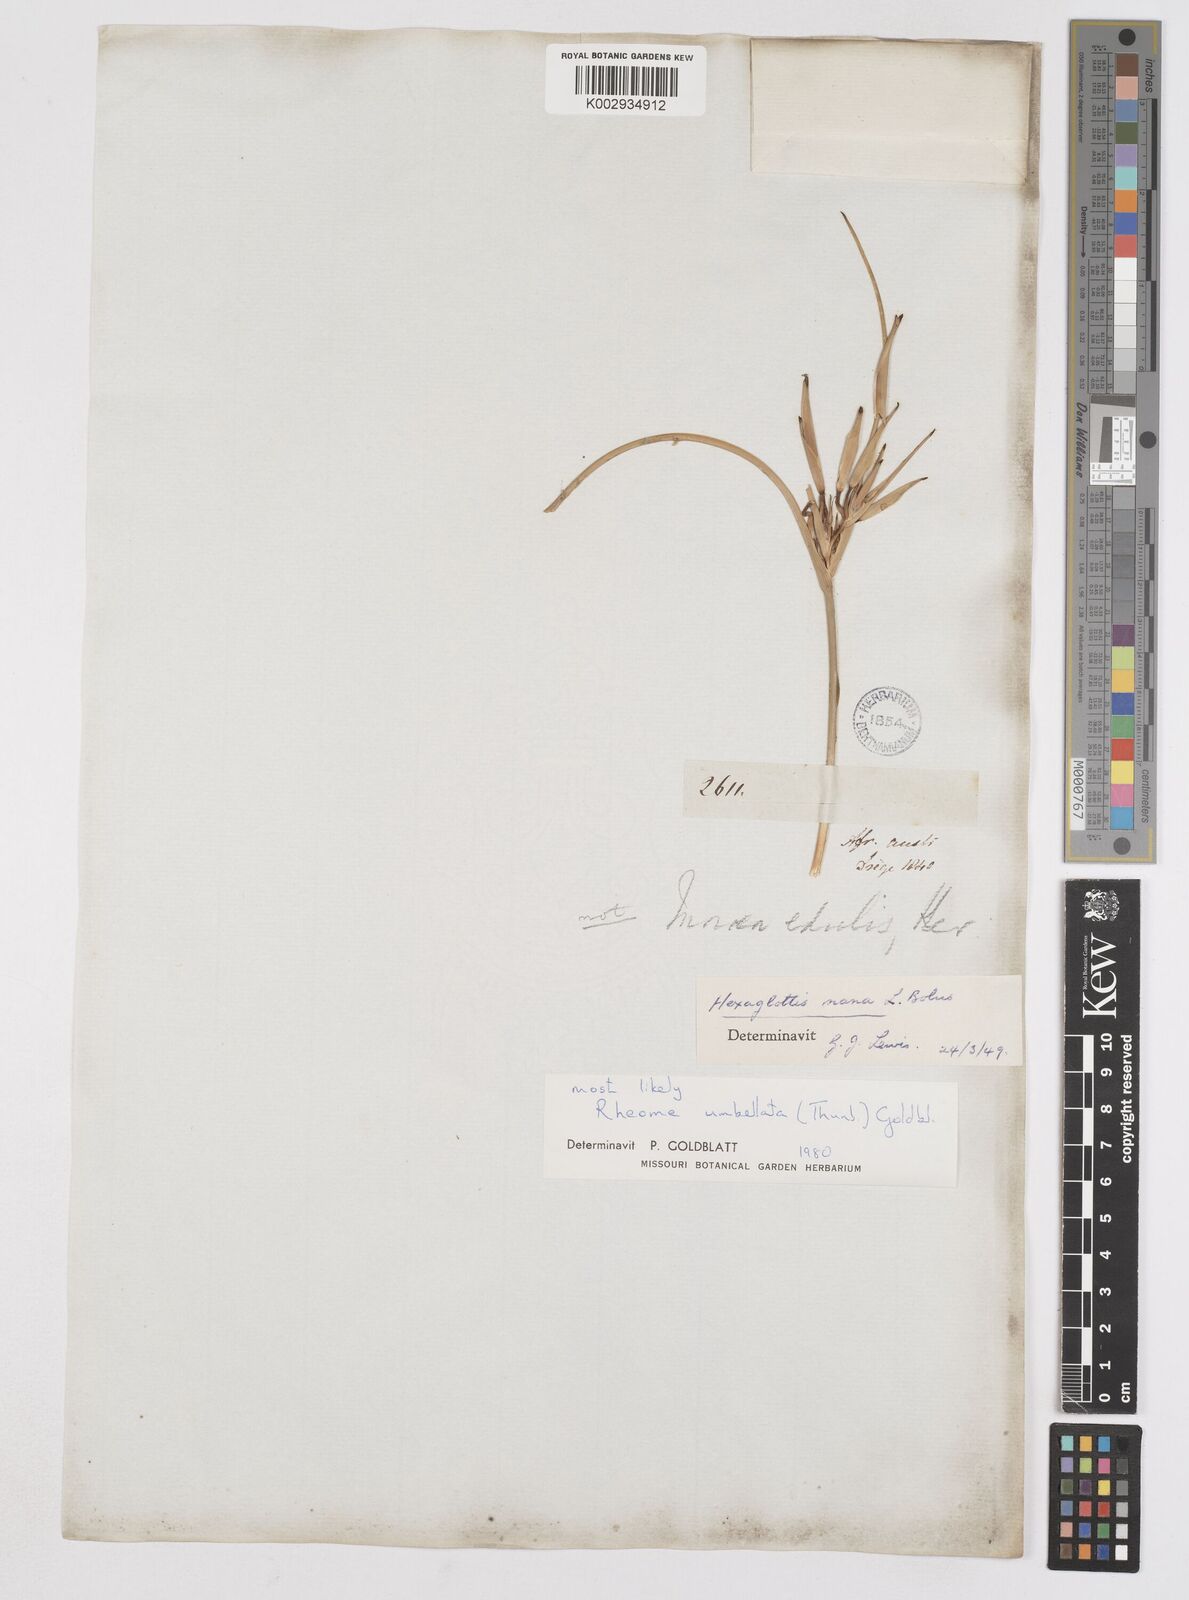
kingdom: Plantae
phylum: Tracheophyta
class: Liliopsida
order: Asparagales
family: Iridaceae
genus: Moraea
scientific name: Moraea umbellata
